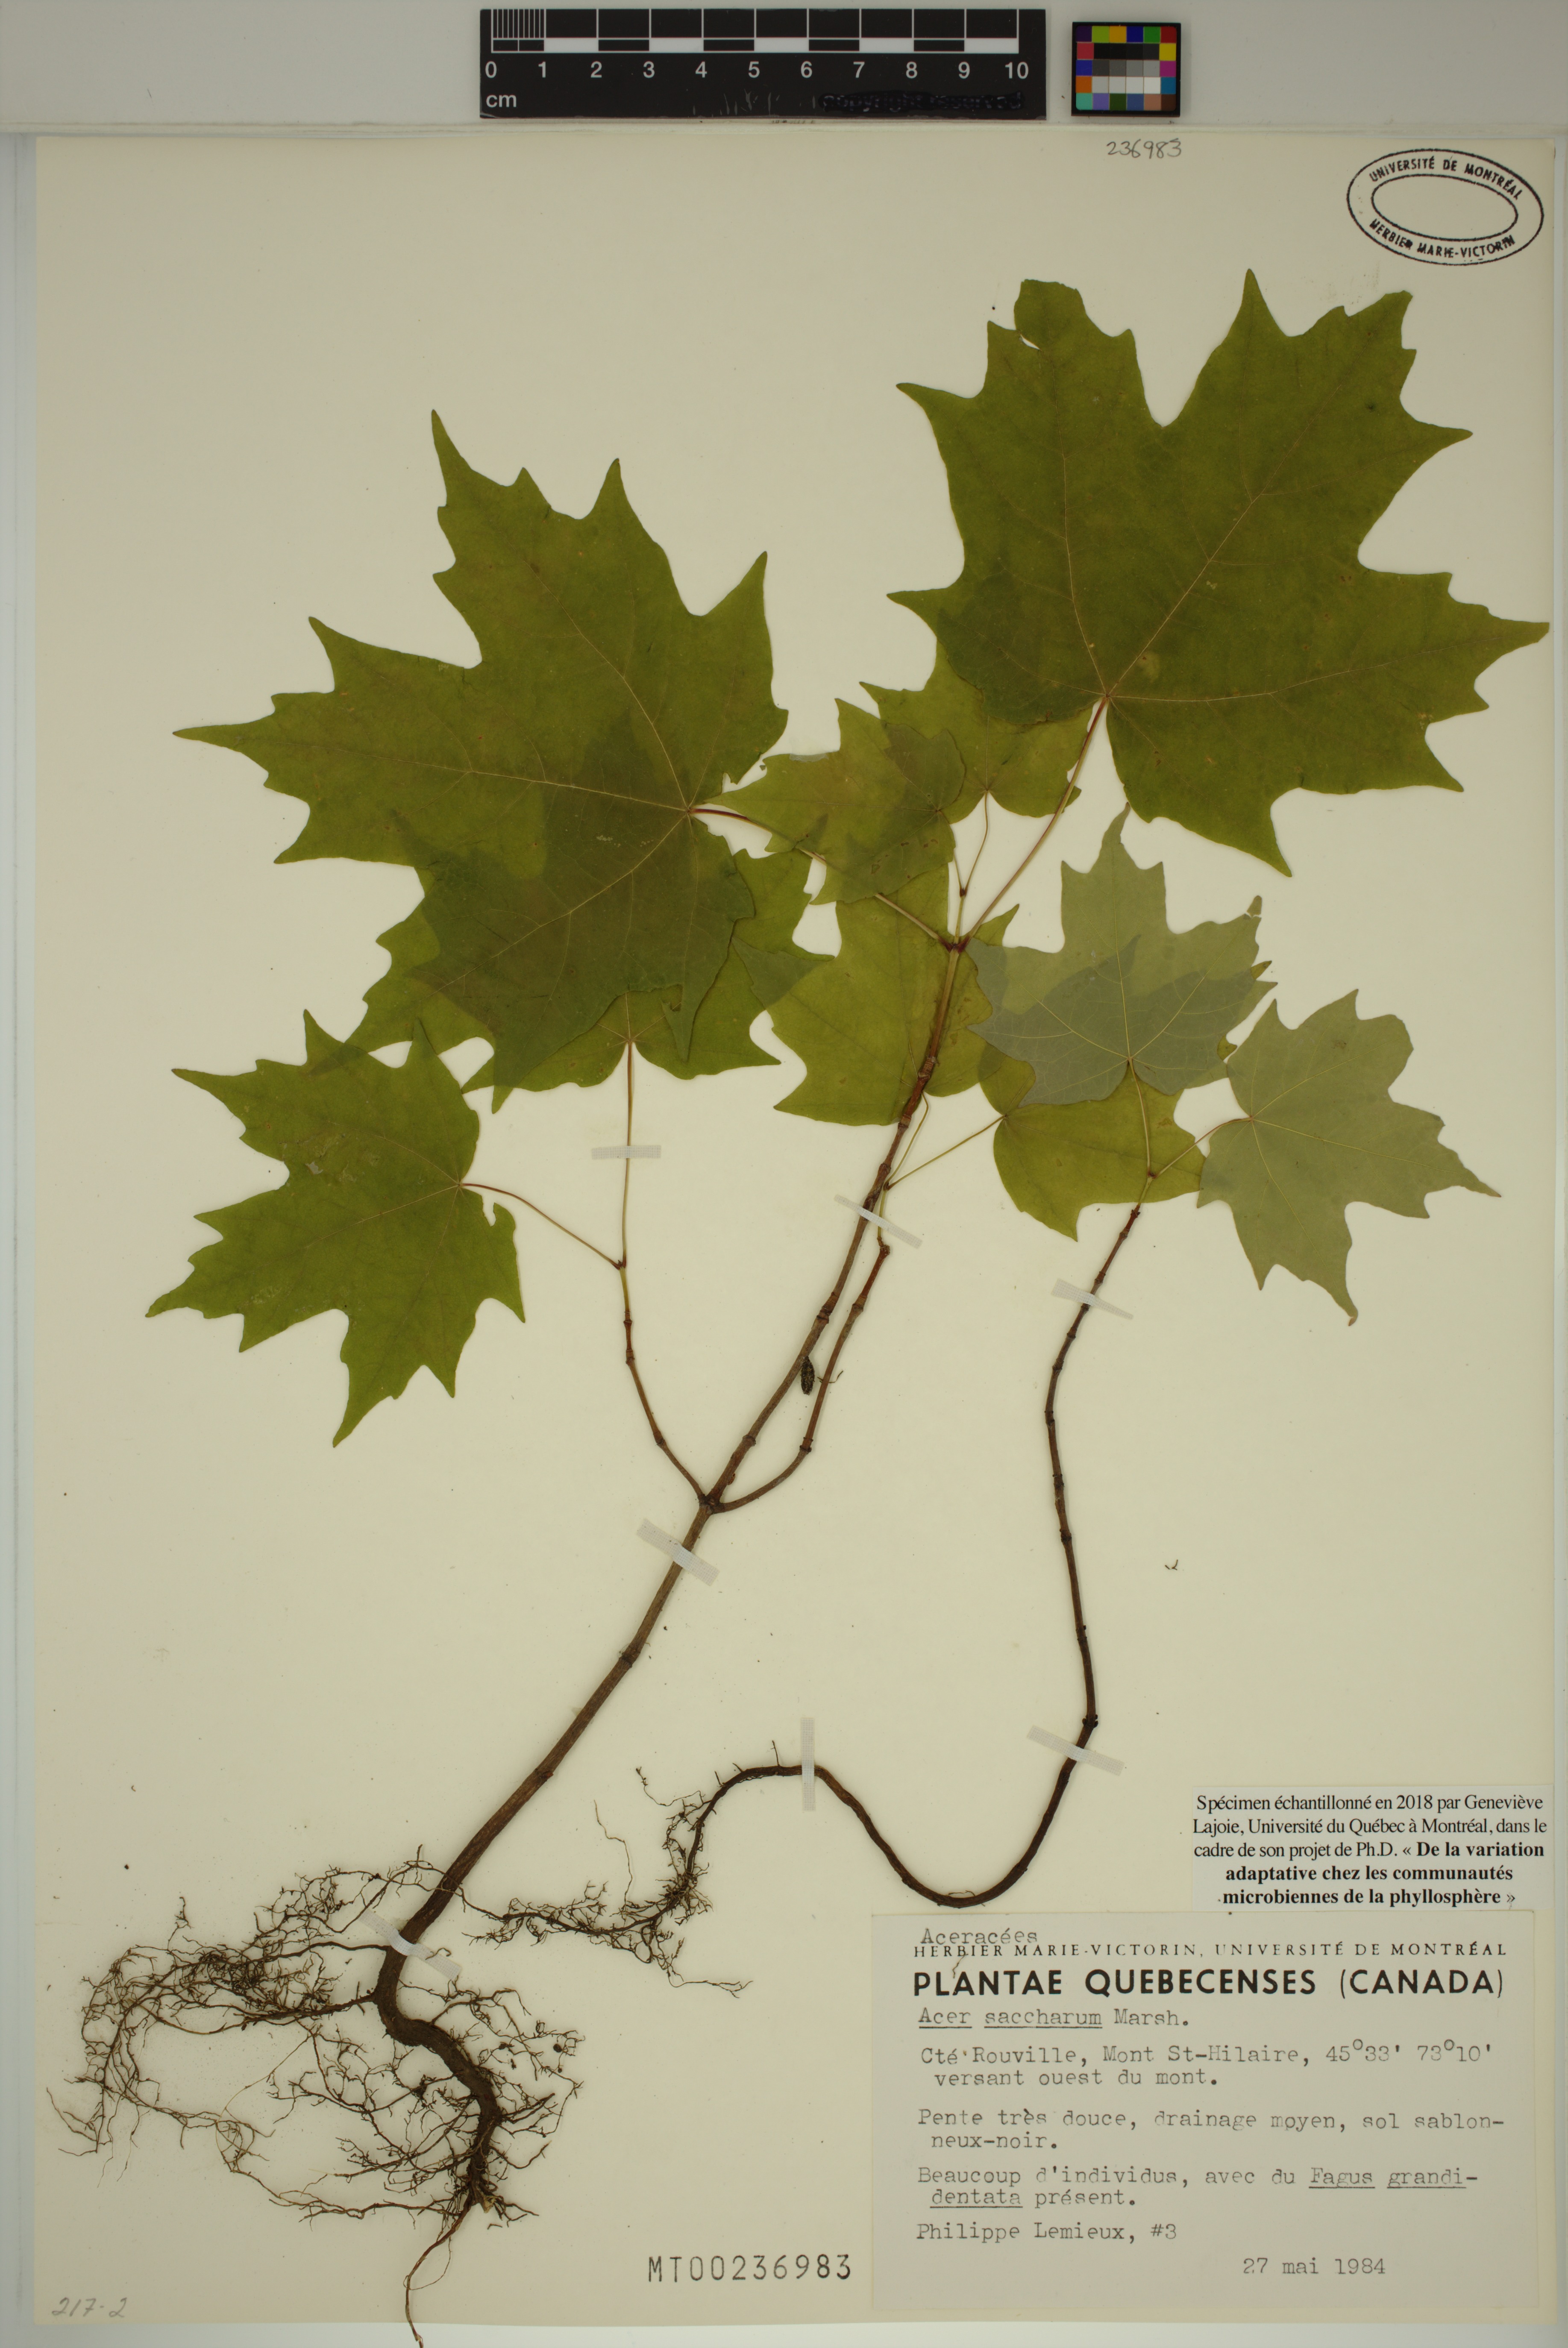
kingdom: Plantae
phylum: Tracheophyta
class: Magnoliopsida
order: Sapindales
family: Sapindaceae
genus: Acer
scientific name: Acer saccharum
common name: Sugar maple
